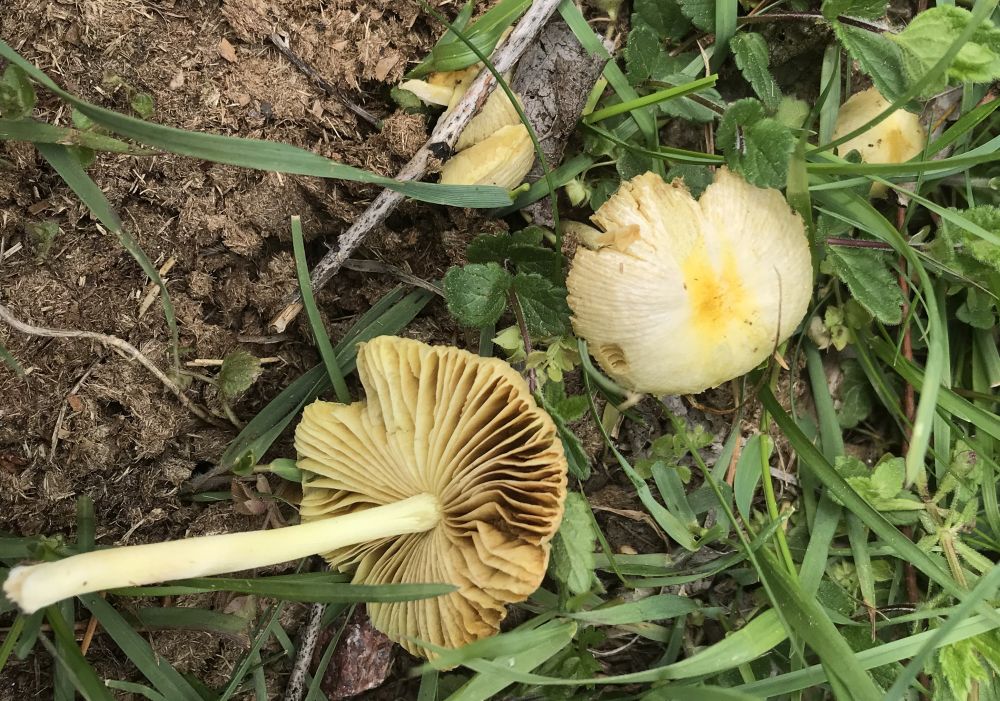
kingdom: Fungi
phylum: Basidiomycota
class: Agaricomycetes
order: Agaricales
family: Bolbitiaceae
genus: Bolbitius
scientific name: Bolbitius titubans
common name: almindelig gulhat
